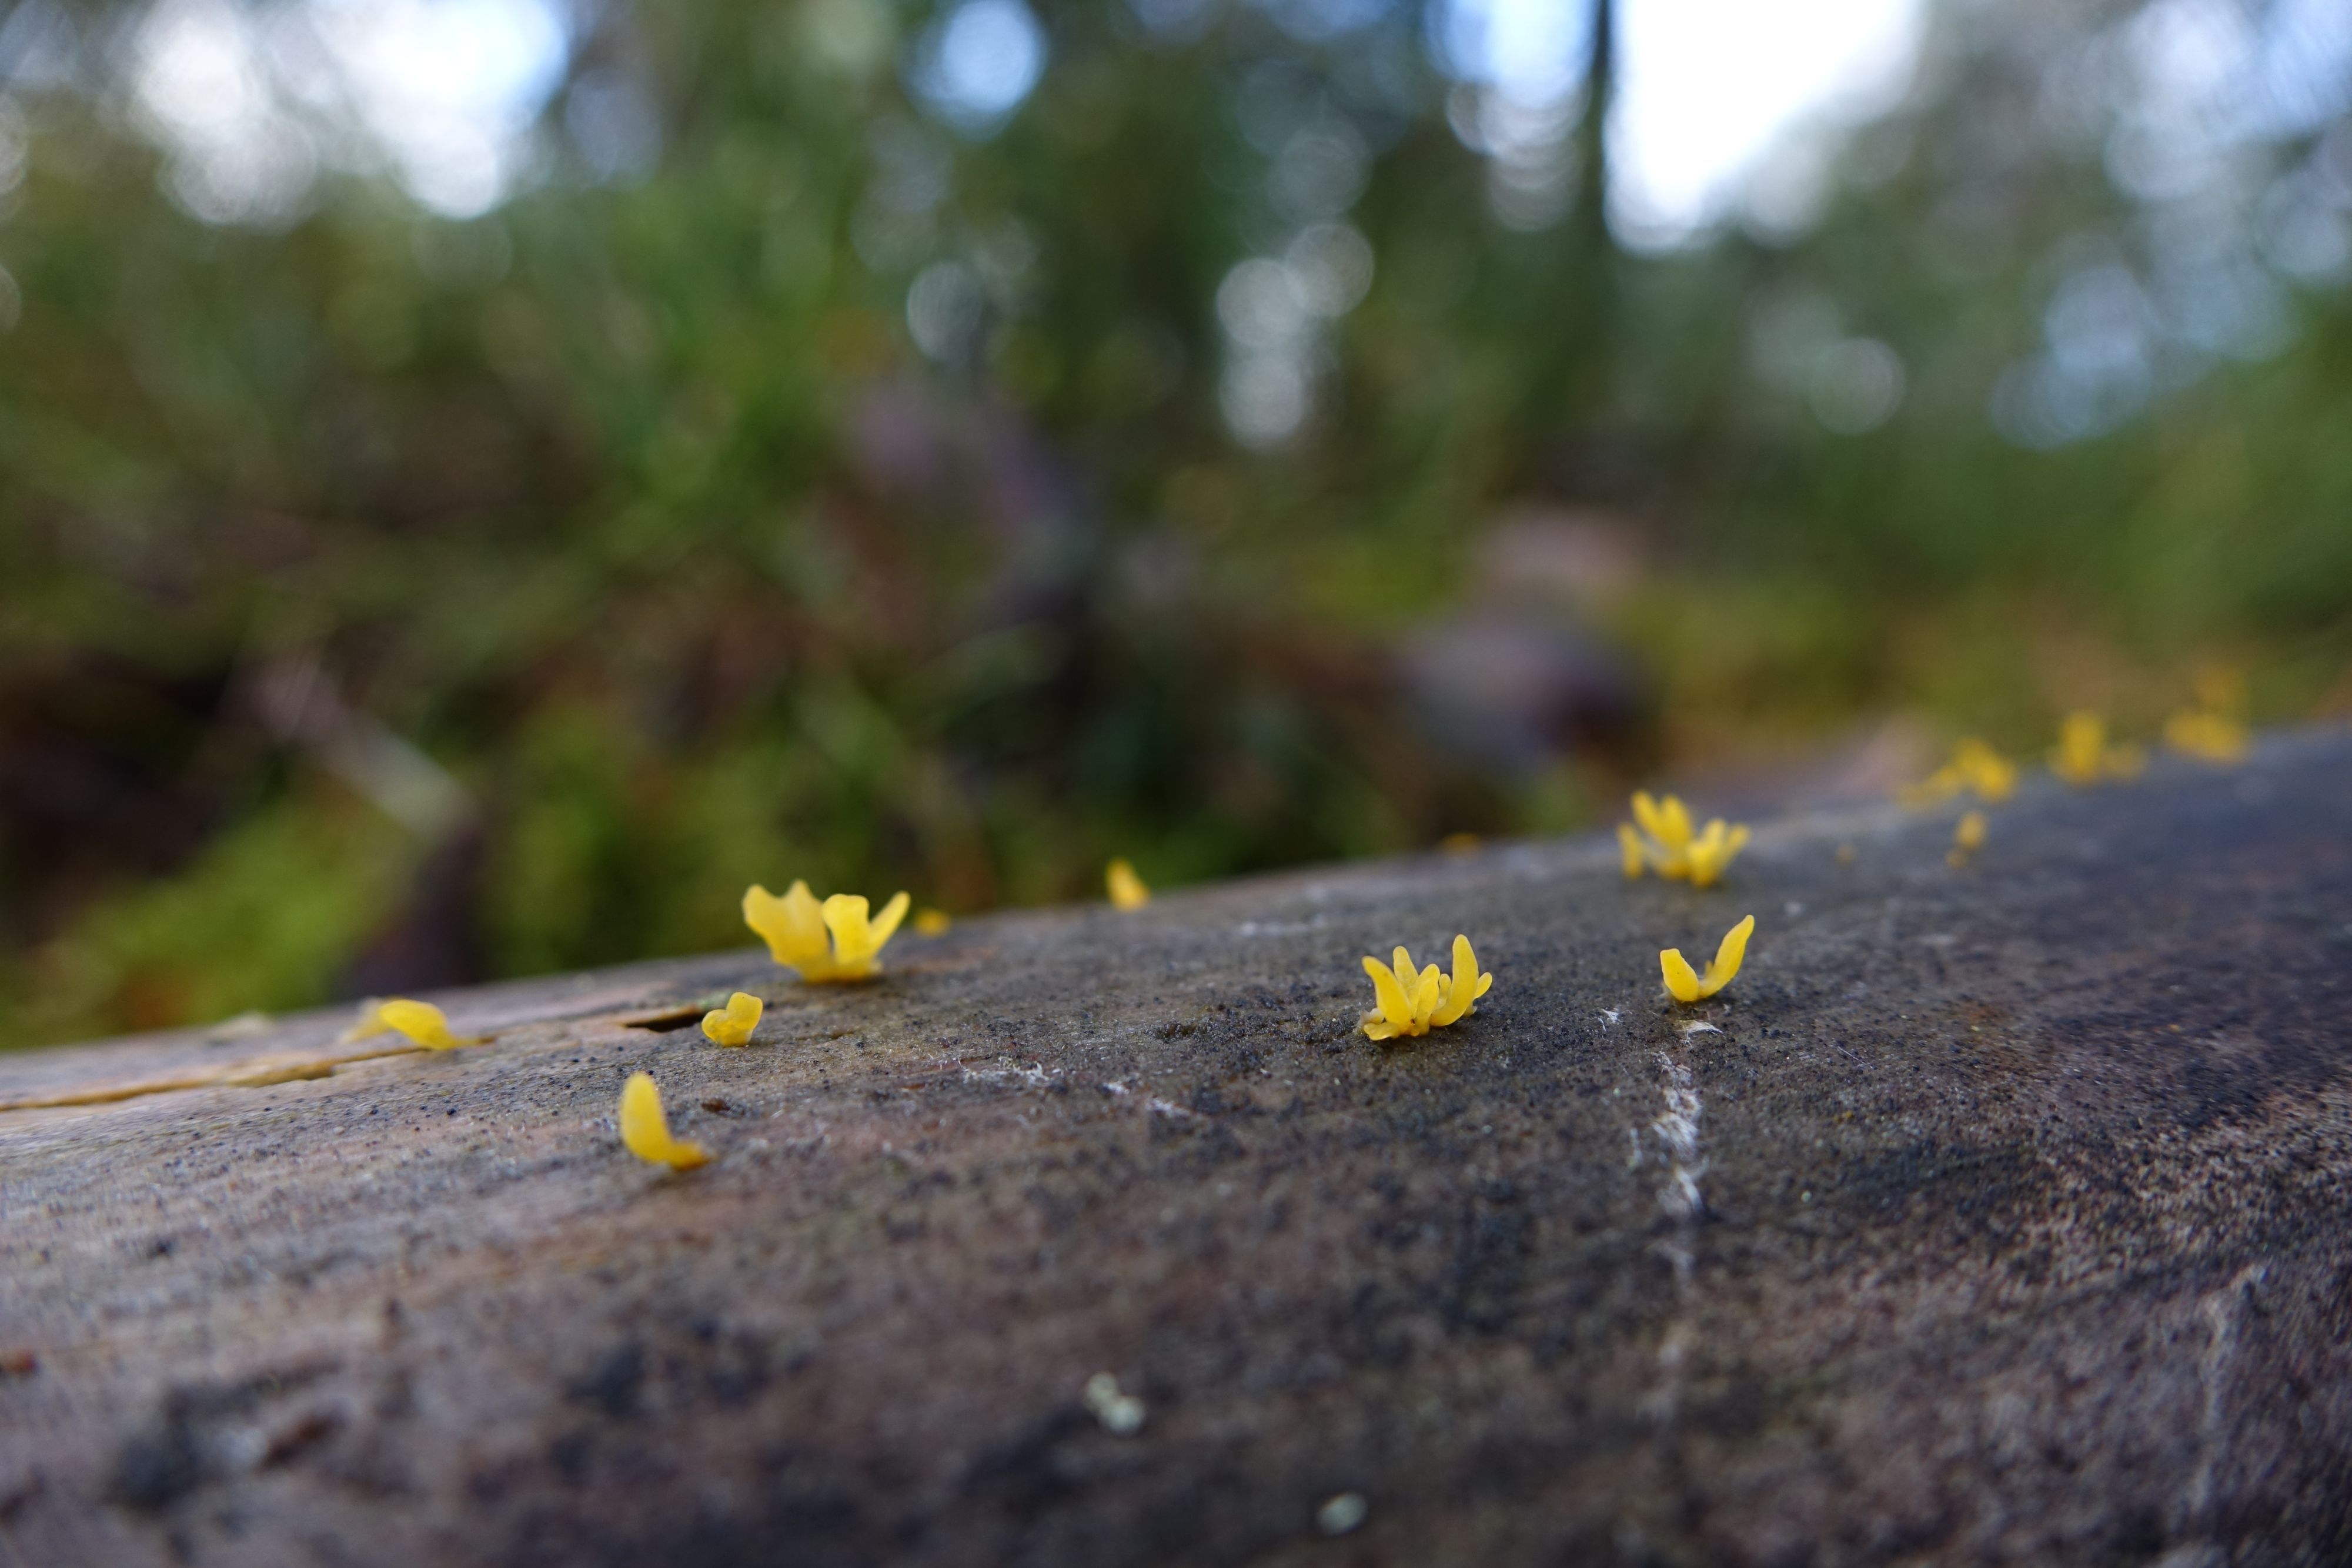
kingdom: Fungi
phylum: Basidiomycota
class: Dacrymycetes
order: Dacrymycetales
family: Dacrymycetaceae
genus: Calocera
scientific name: Calocera furcata
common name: Forked stagshorn
